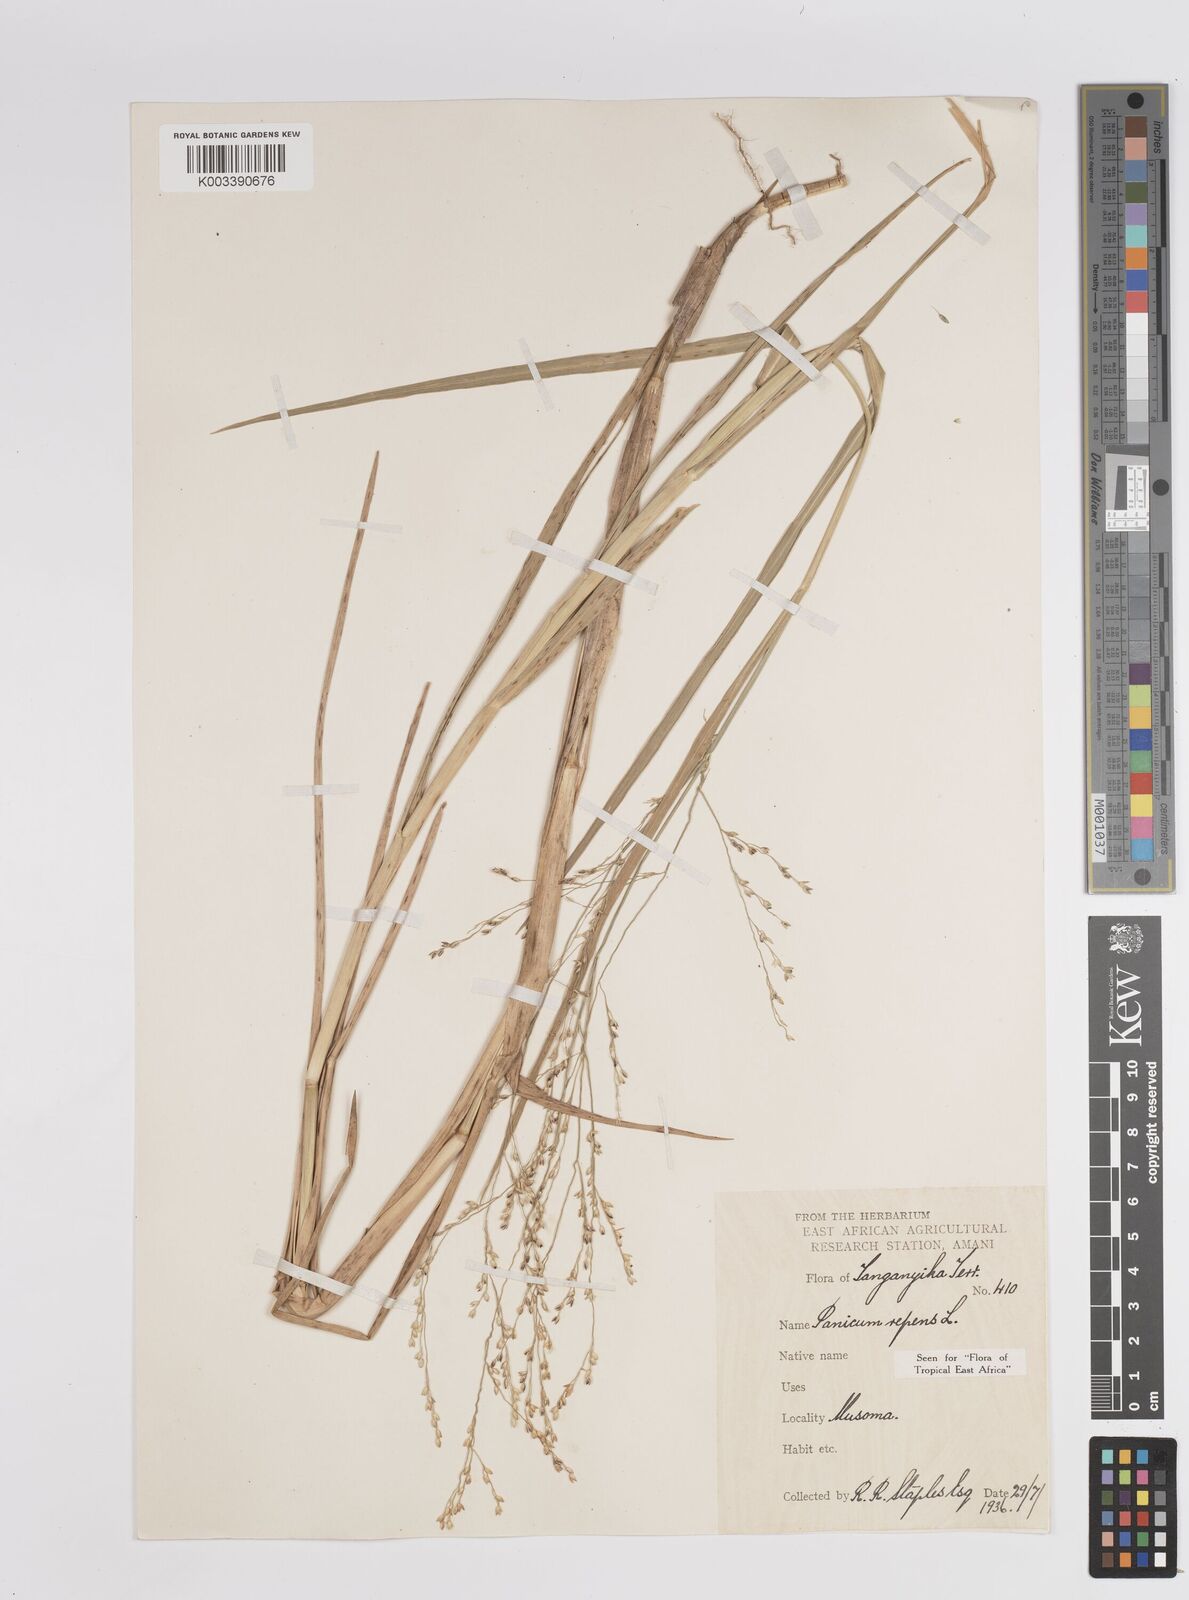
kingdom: Plantae
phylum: Tracheophyta
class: Liliopsida
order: Poales
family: Poaceae
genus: Panicum
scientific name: Panicum repens
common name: Torpedo grass
